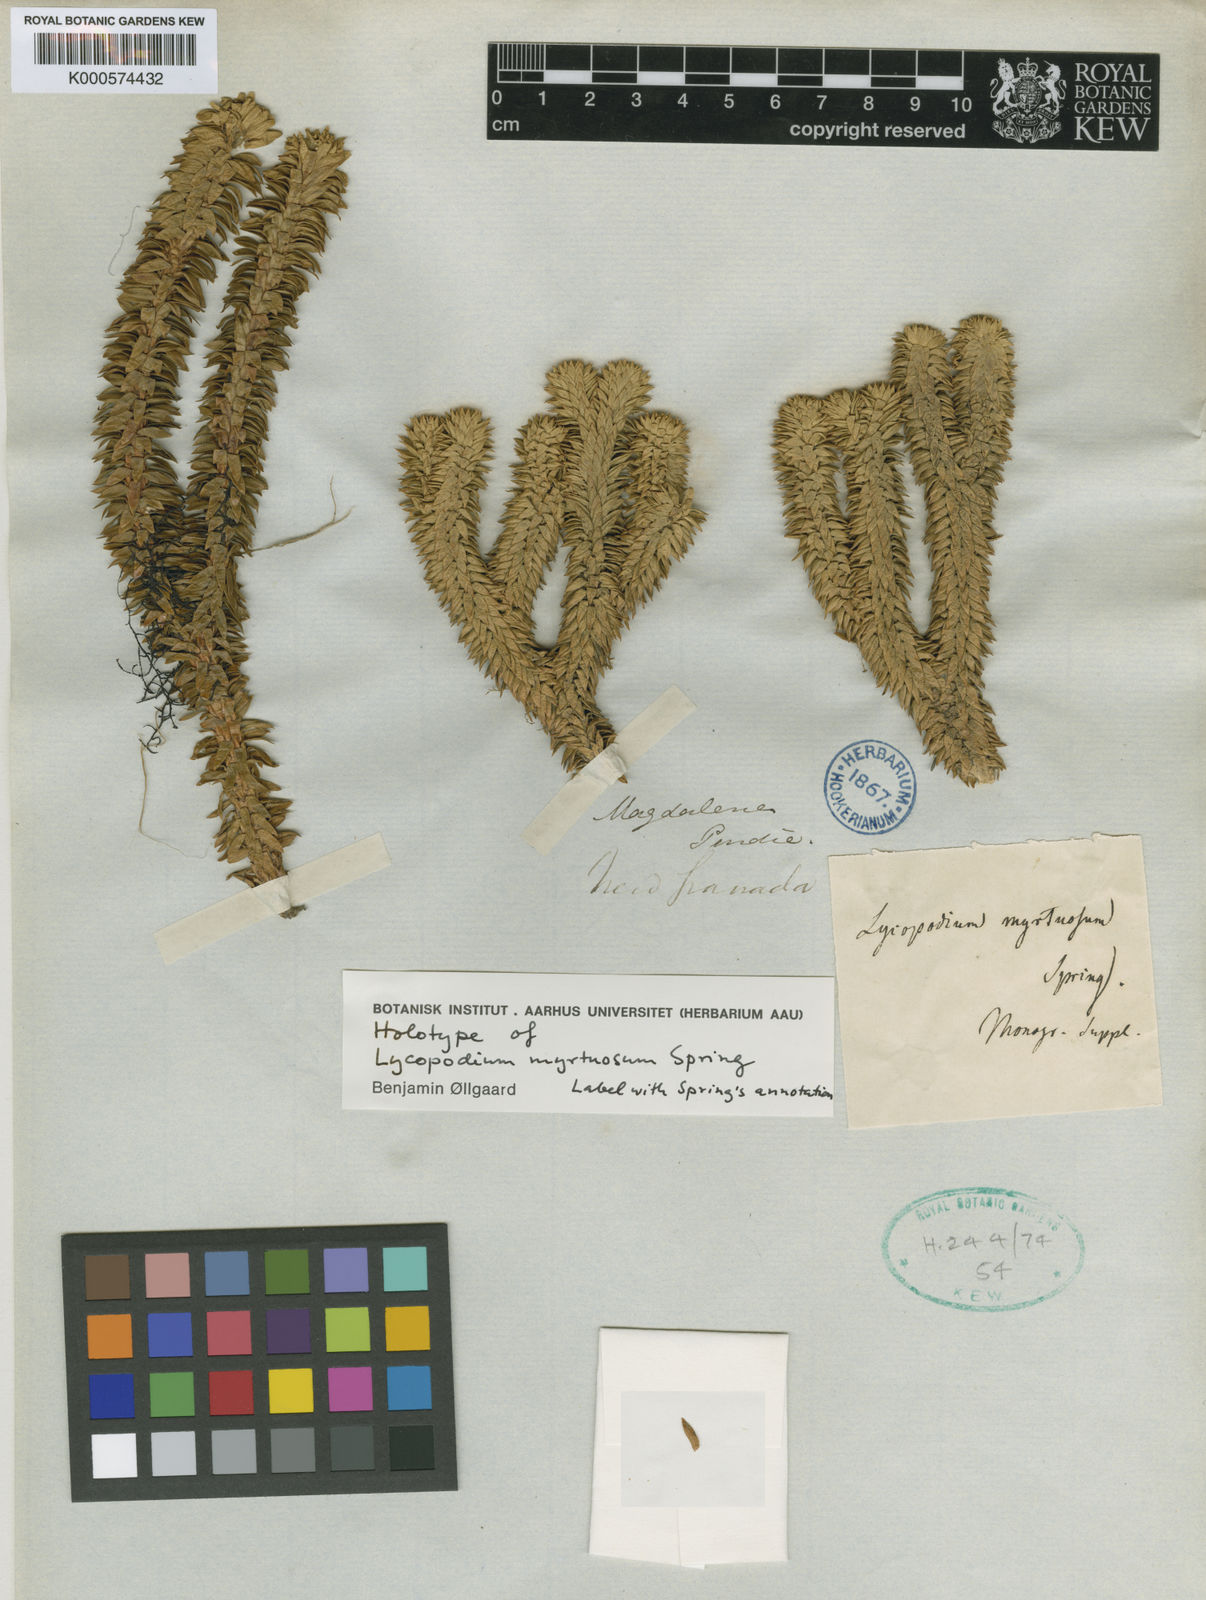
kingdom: Plantae
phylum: Tracheophyta
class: Lycopodiopsida
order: Lycopodiales
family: Lycopodiaceae
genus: Phlegmariurus
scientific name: Phlegmariurus myrtuosus
